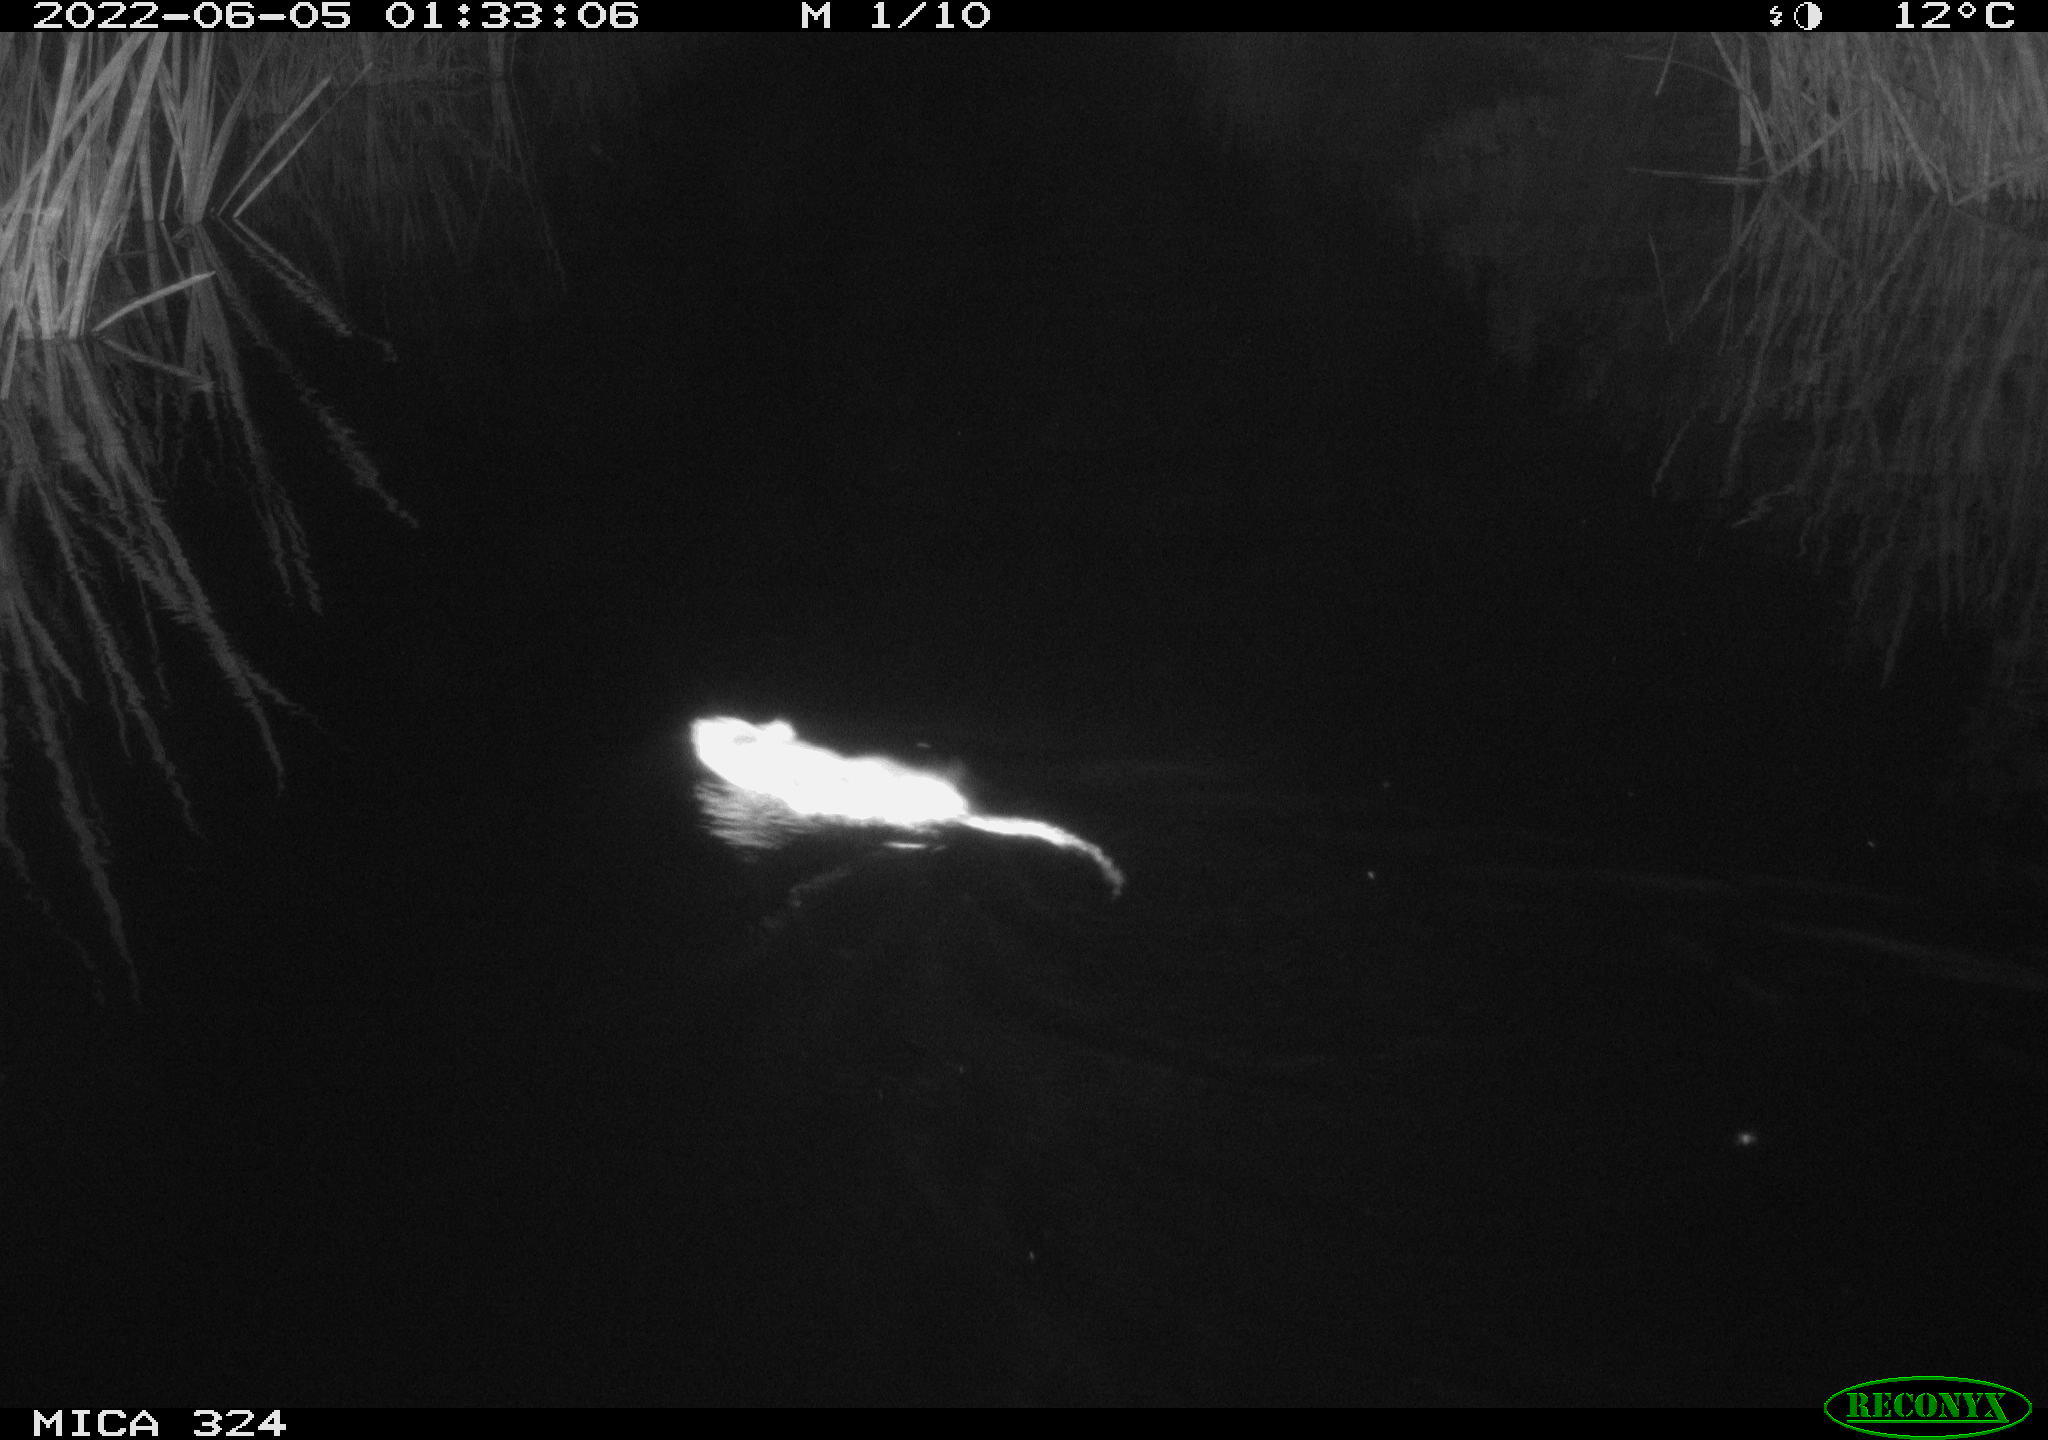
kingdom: Animalia
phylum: Chordata
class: Mammalia
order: Rodentia
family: Cricetidae
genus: Ondatra
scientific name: Ondatra zibethicus
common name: Muskrat
